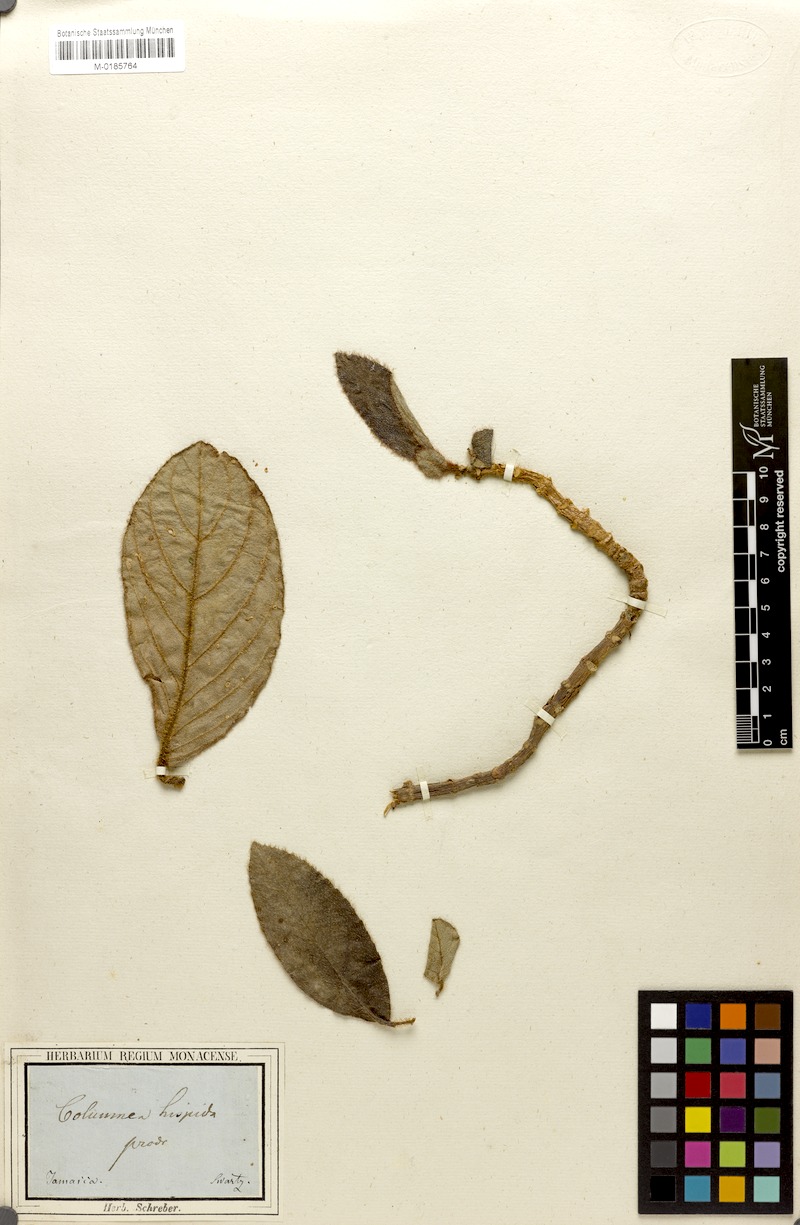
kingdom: Plantae
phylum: Tracheophyta
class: Magnoliopsida
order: Lamiales
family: Gesneriaceae
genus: Columnea
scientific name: Columnea hispida
